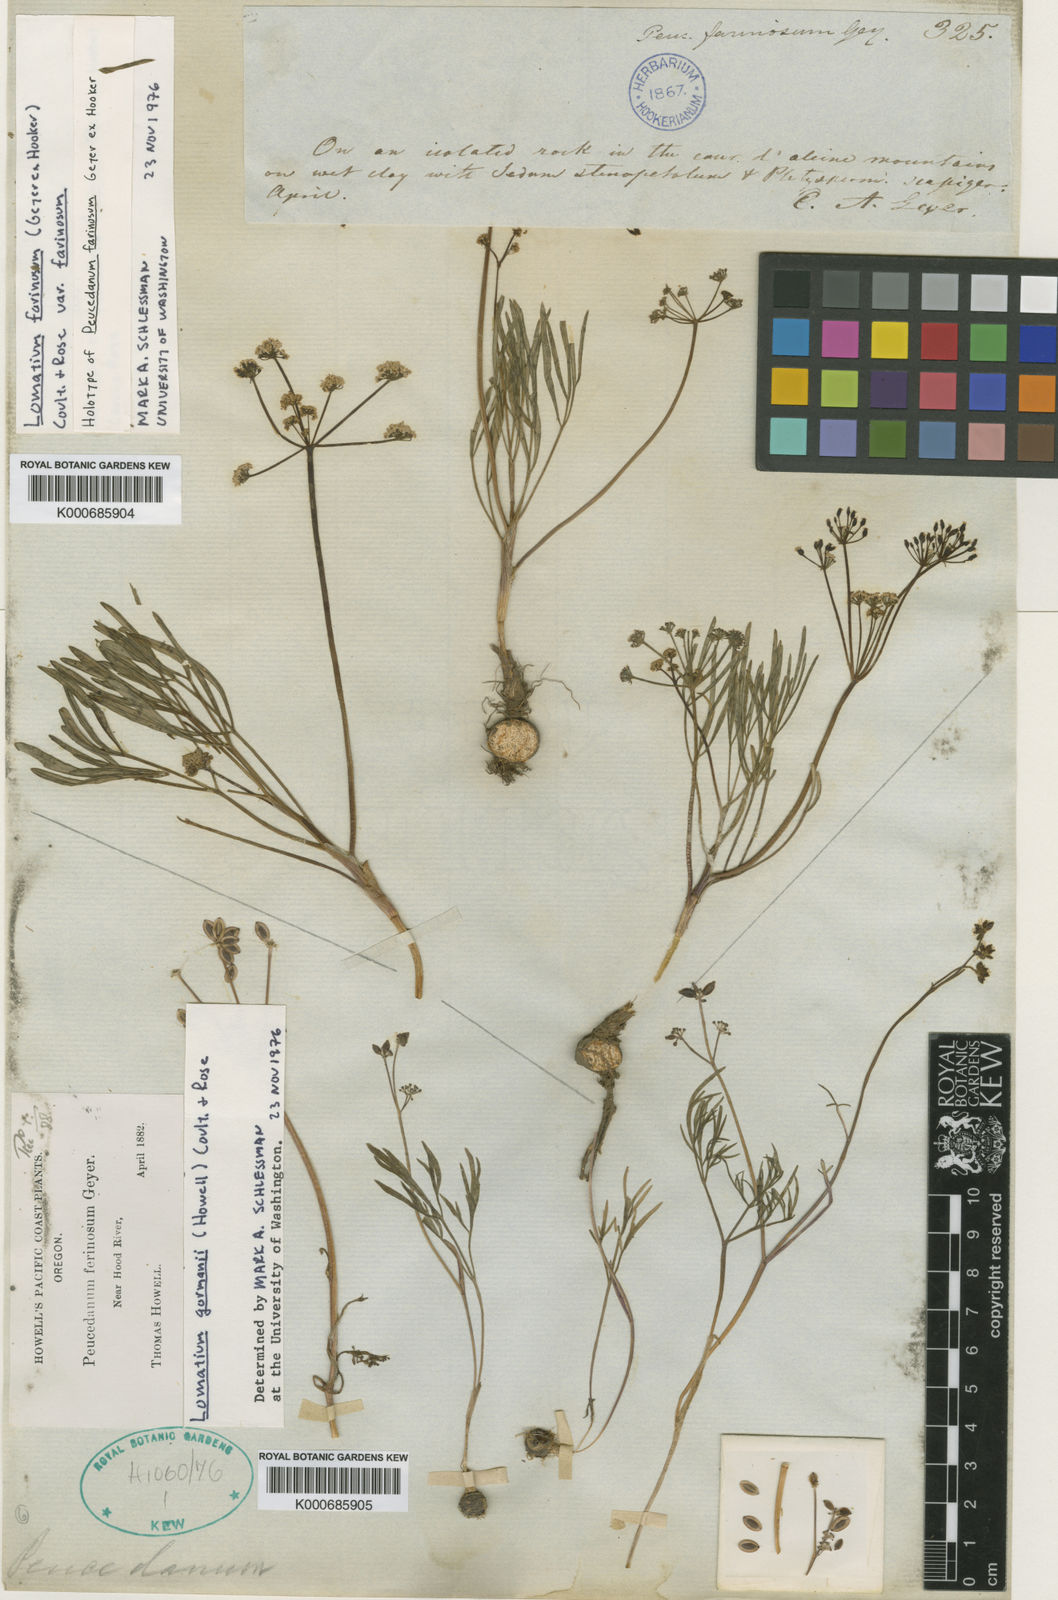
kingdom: Plantae
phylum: Tracheophyta
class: Magnoliopsida
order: Apiales
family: Apiaceae
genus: Lomatium
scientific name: Lomatium farinosum
